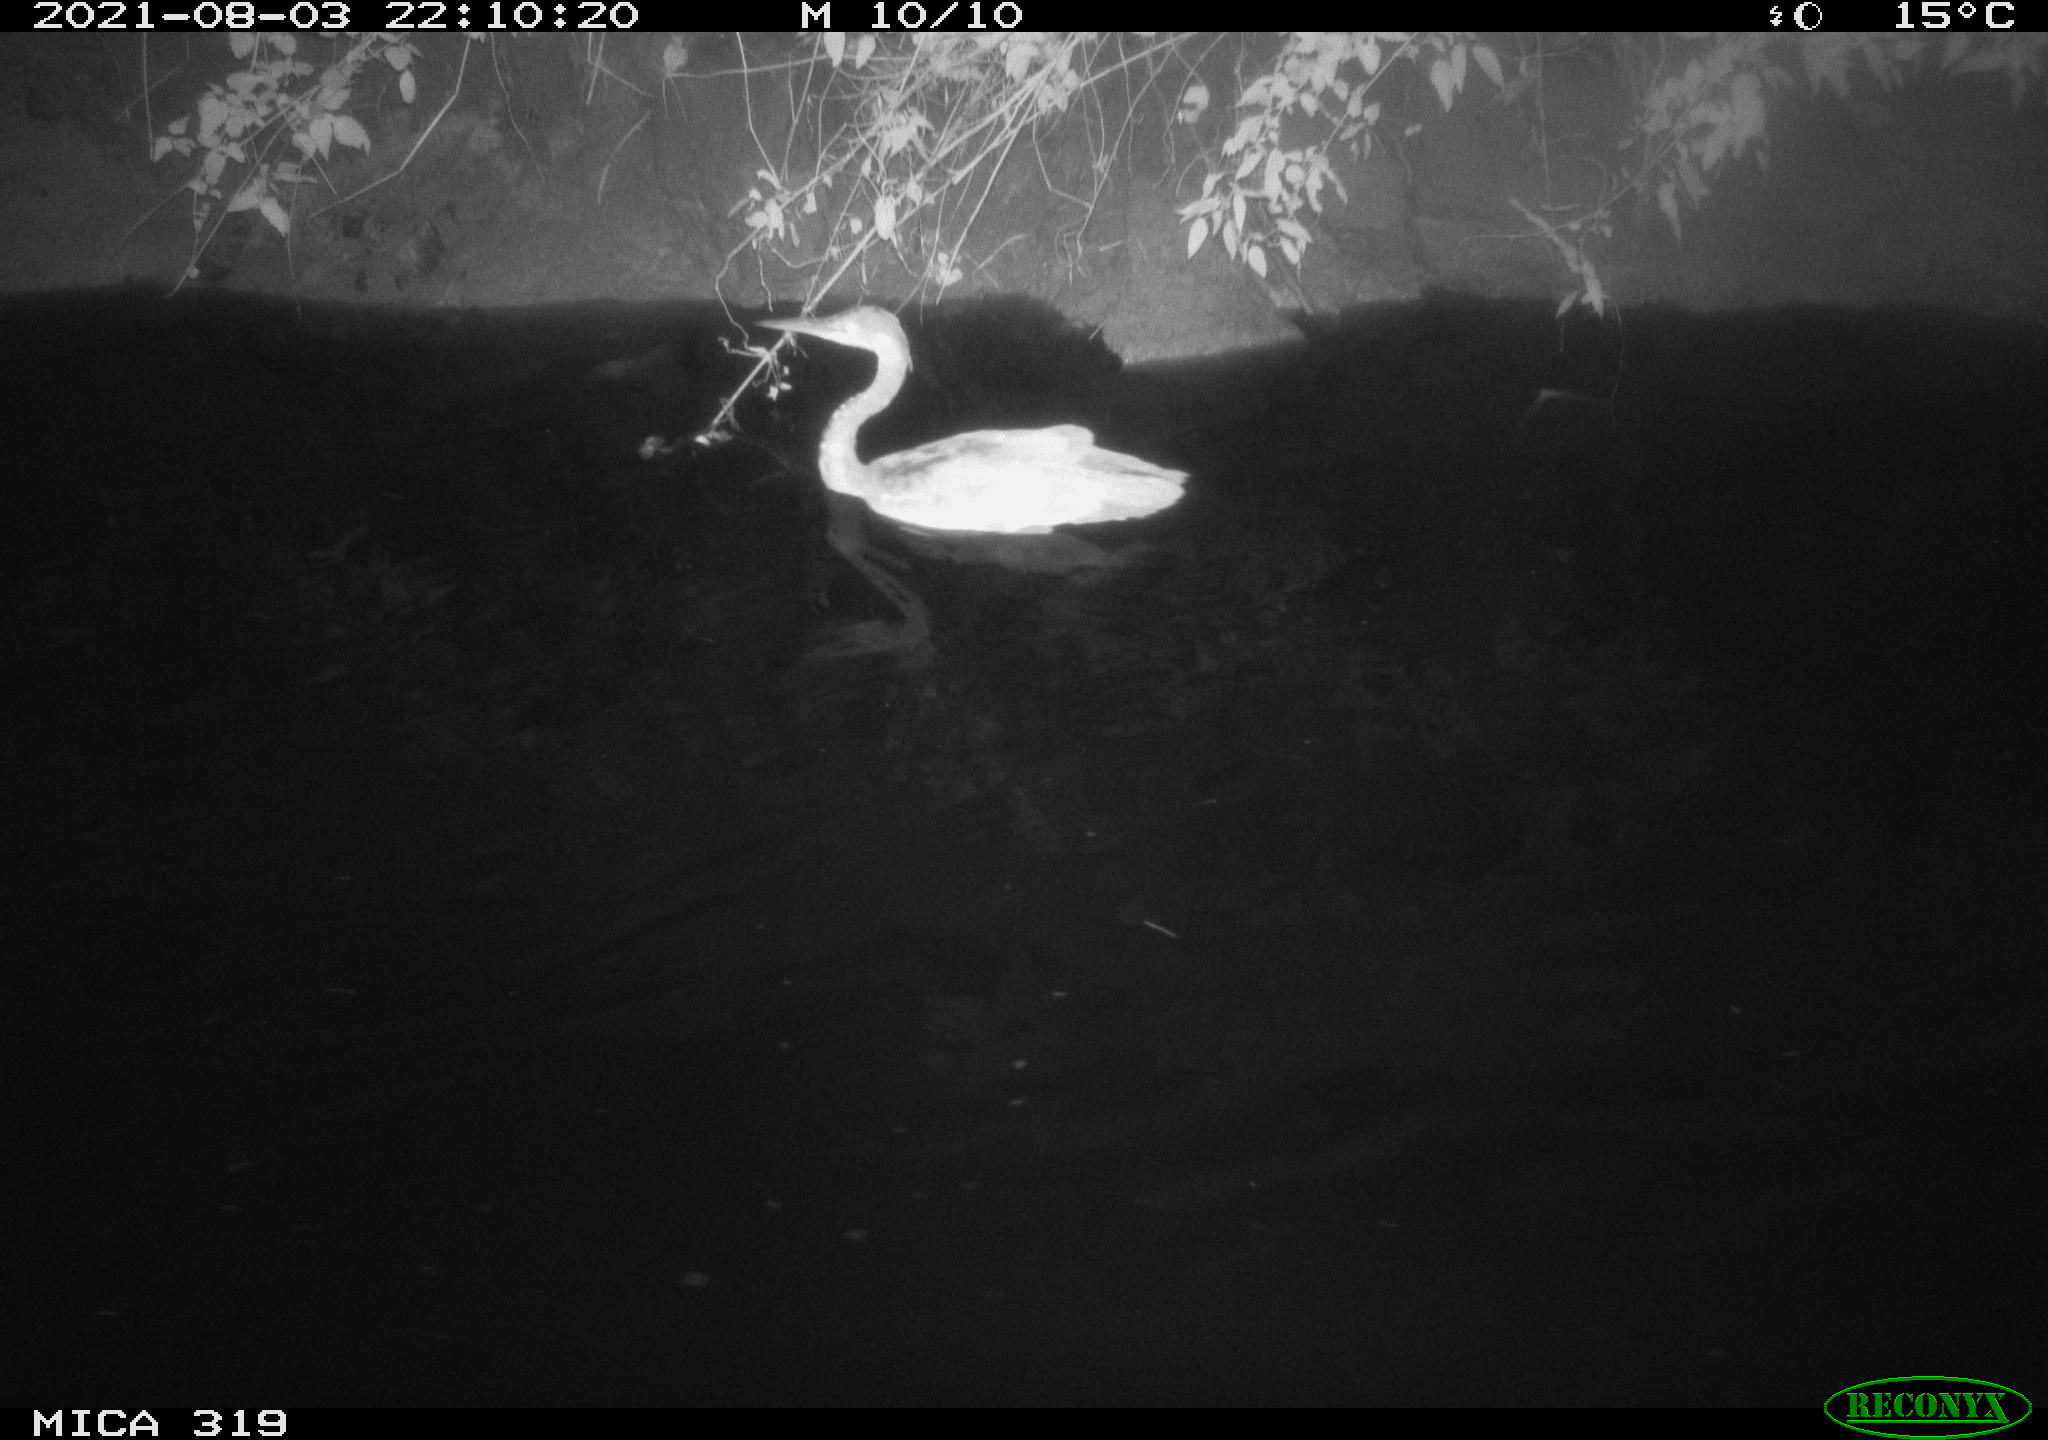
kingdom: Animalia
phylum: Chordata
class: Aves
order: Pelecaniformes
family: Ardeidae
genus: Ardea
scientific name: Ardea
